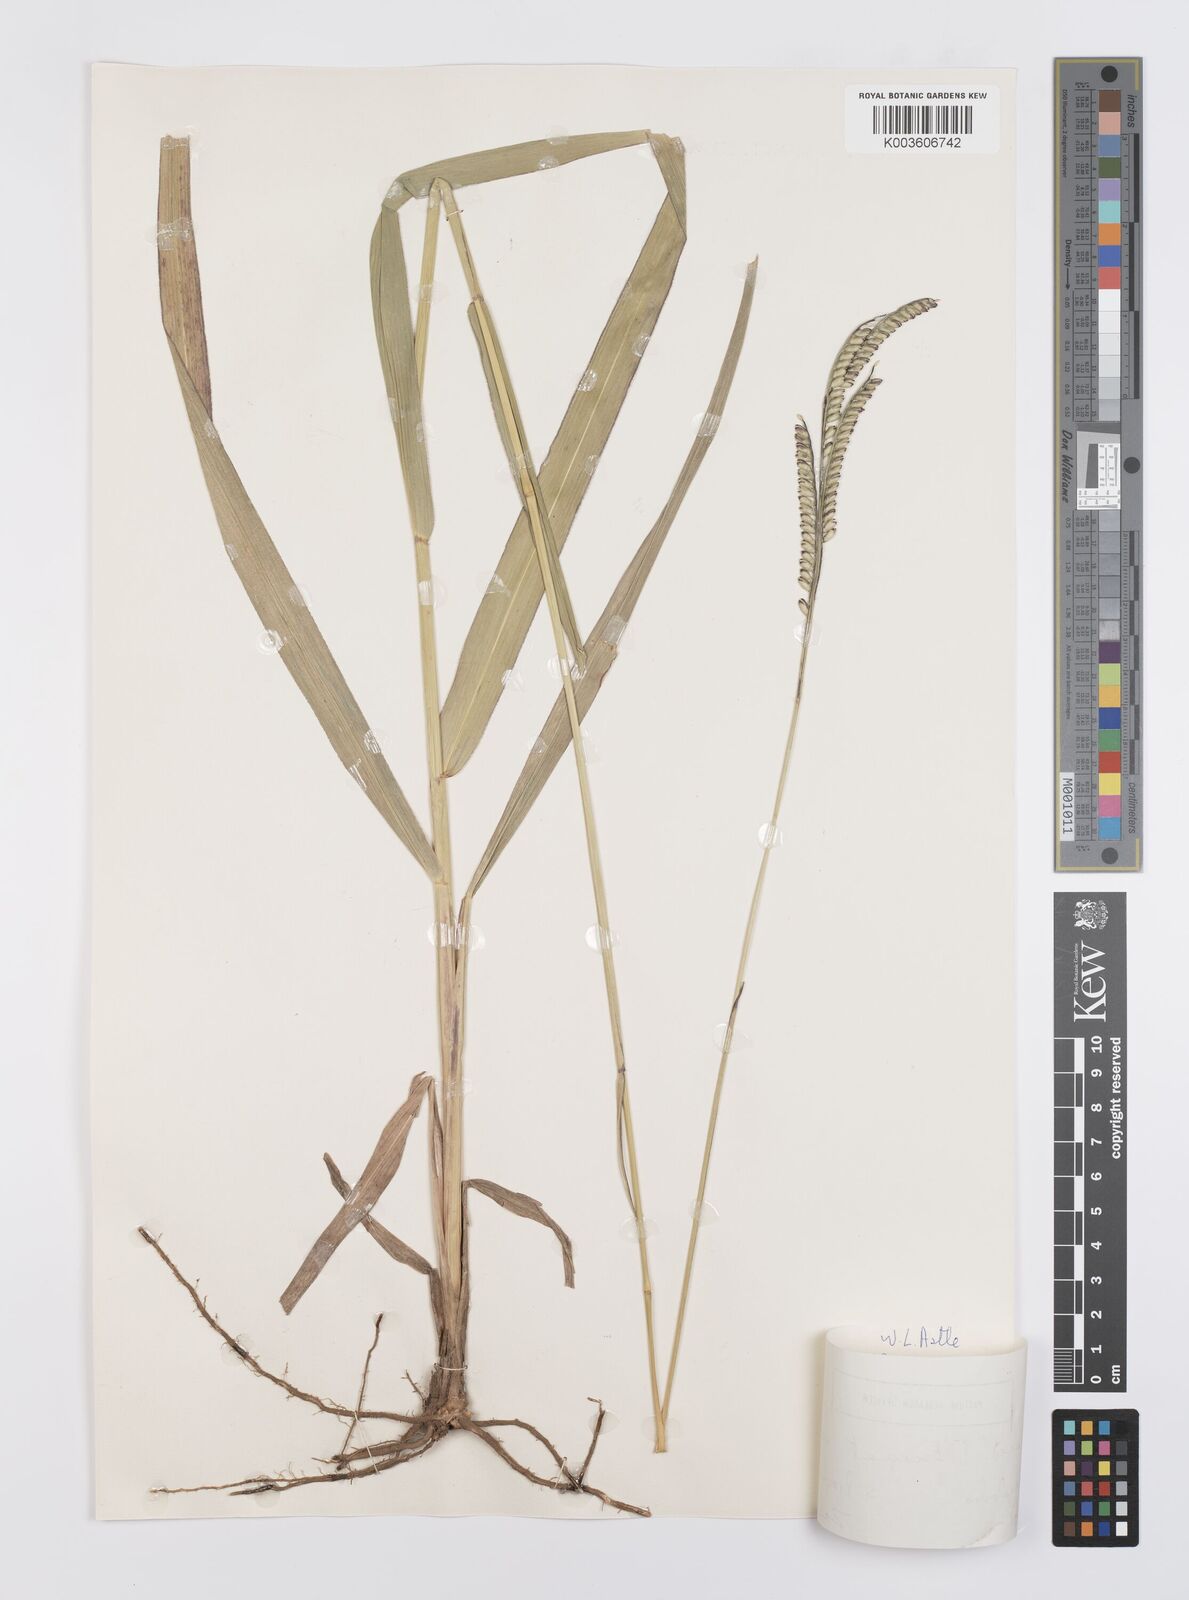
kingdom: Plantae
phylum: Tracheophyta
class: Liliopsida
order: Poales
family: Poaceae
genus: Urochloa
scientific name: Urochloa brizantha
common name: Palisade signalgrass
